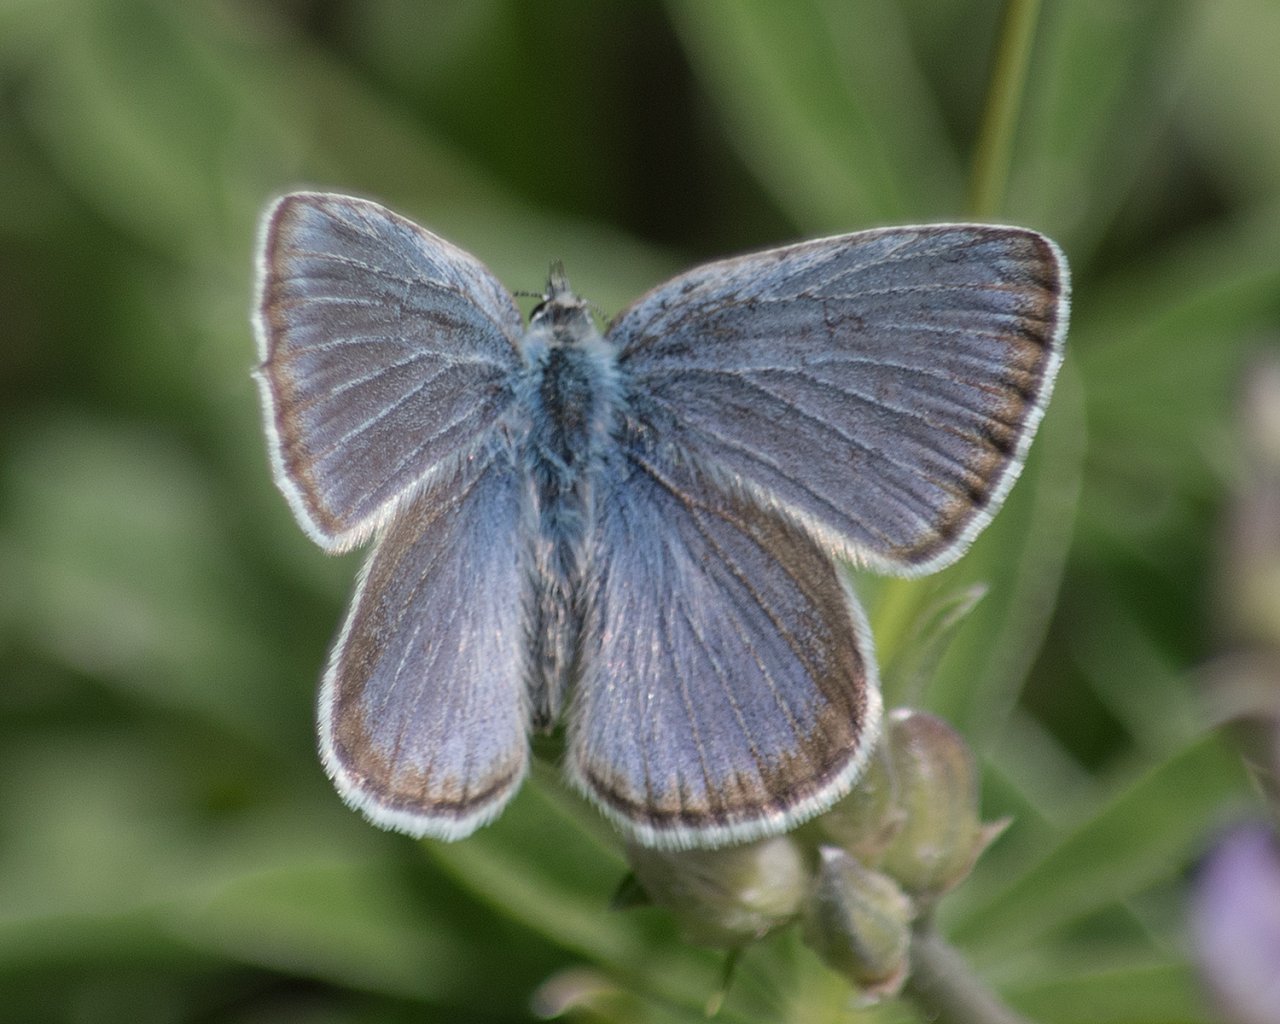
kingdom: Animalia
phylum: Arthropoda
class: Insecta
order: Lepidoptera
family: Lycaenidae
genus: Icaricia
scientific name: Icaricia icarioides
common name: Boisduval's Blue
